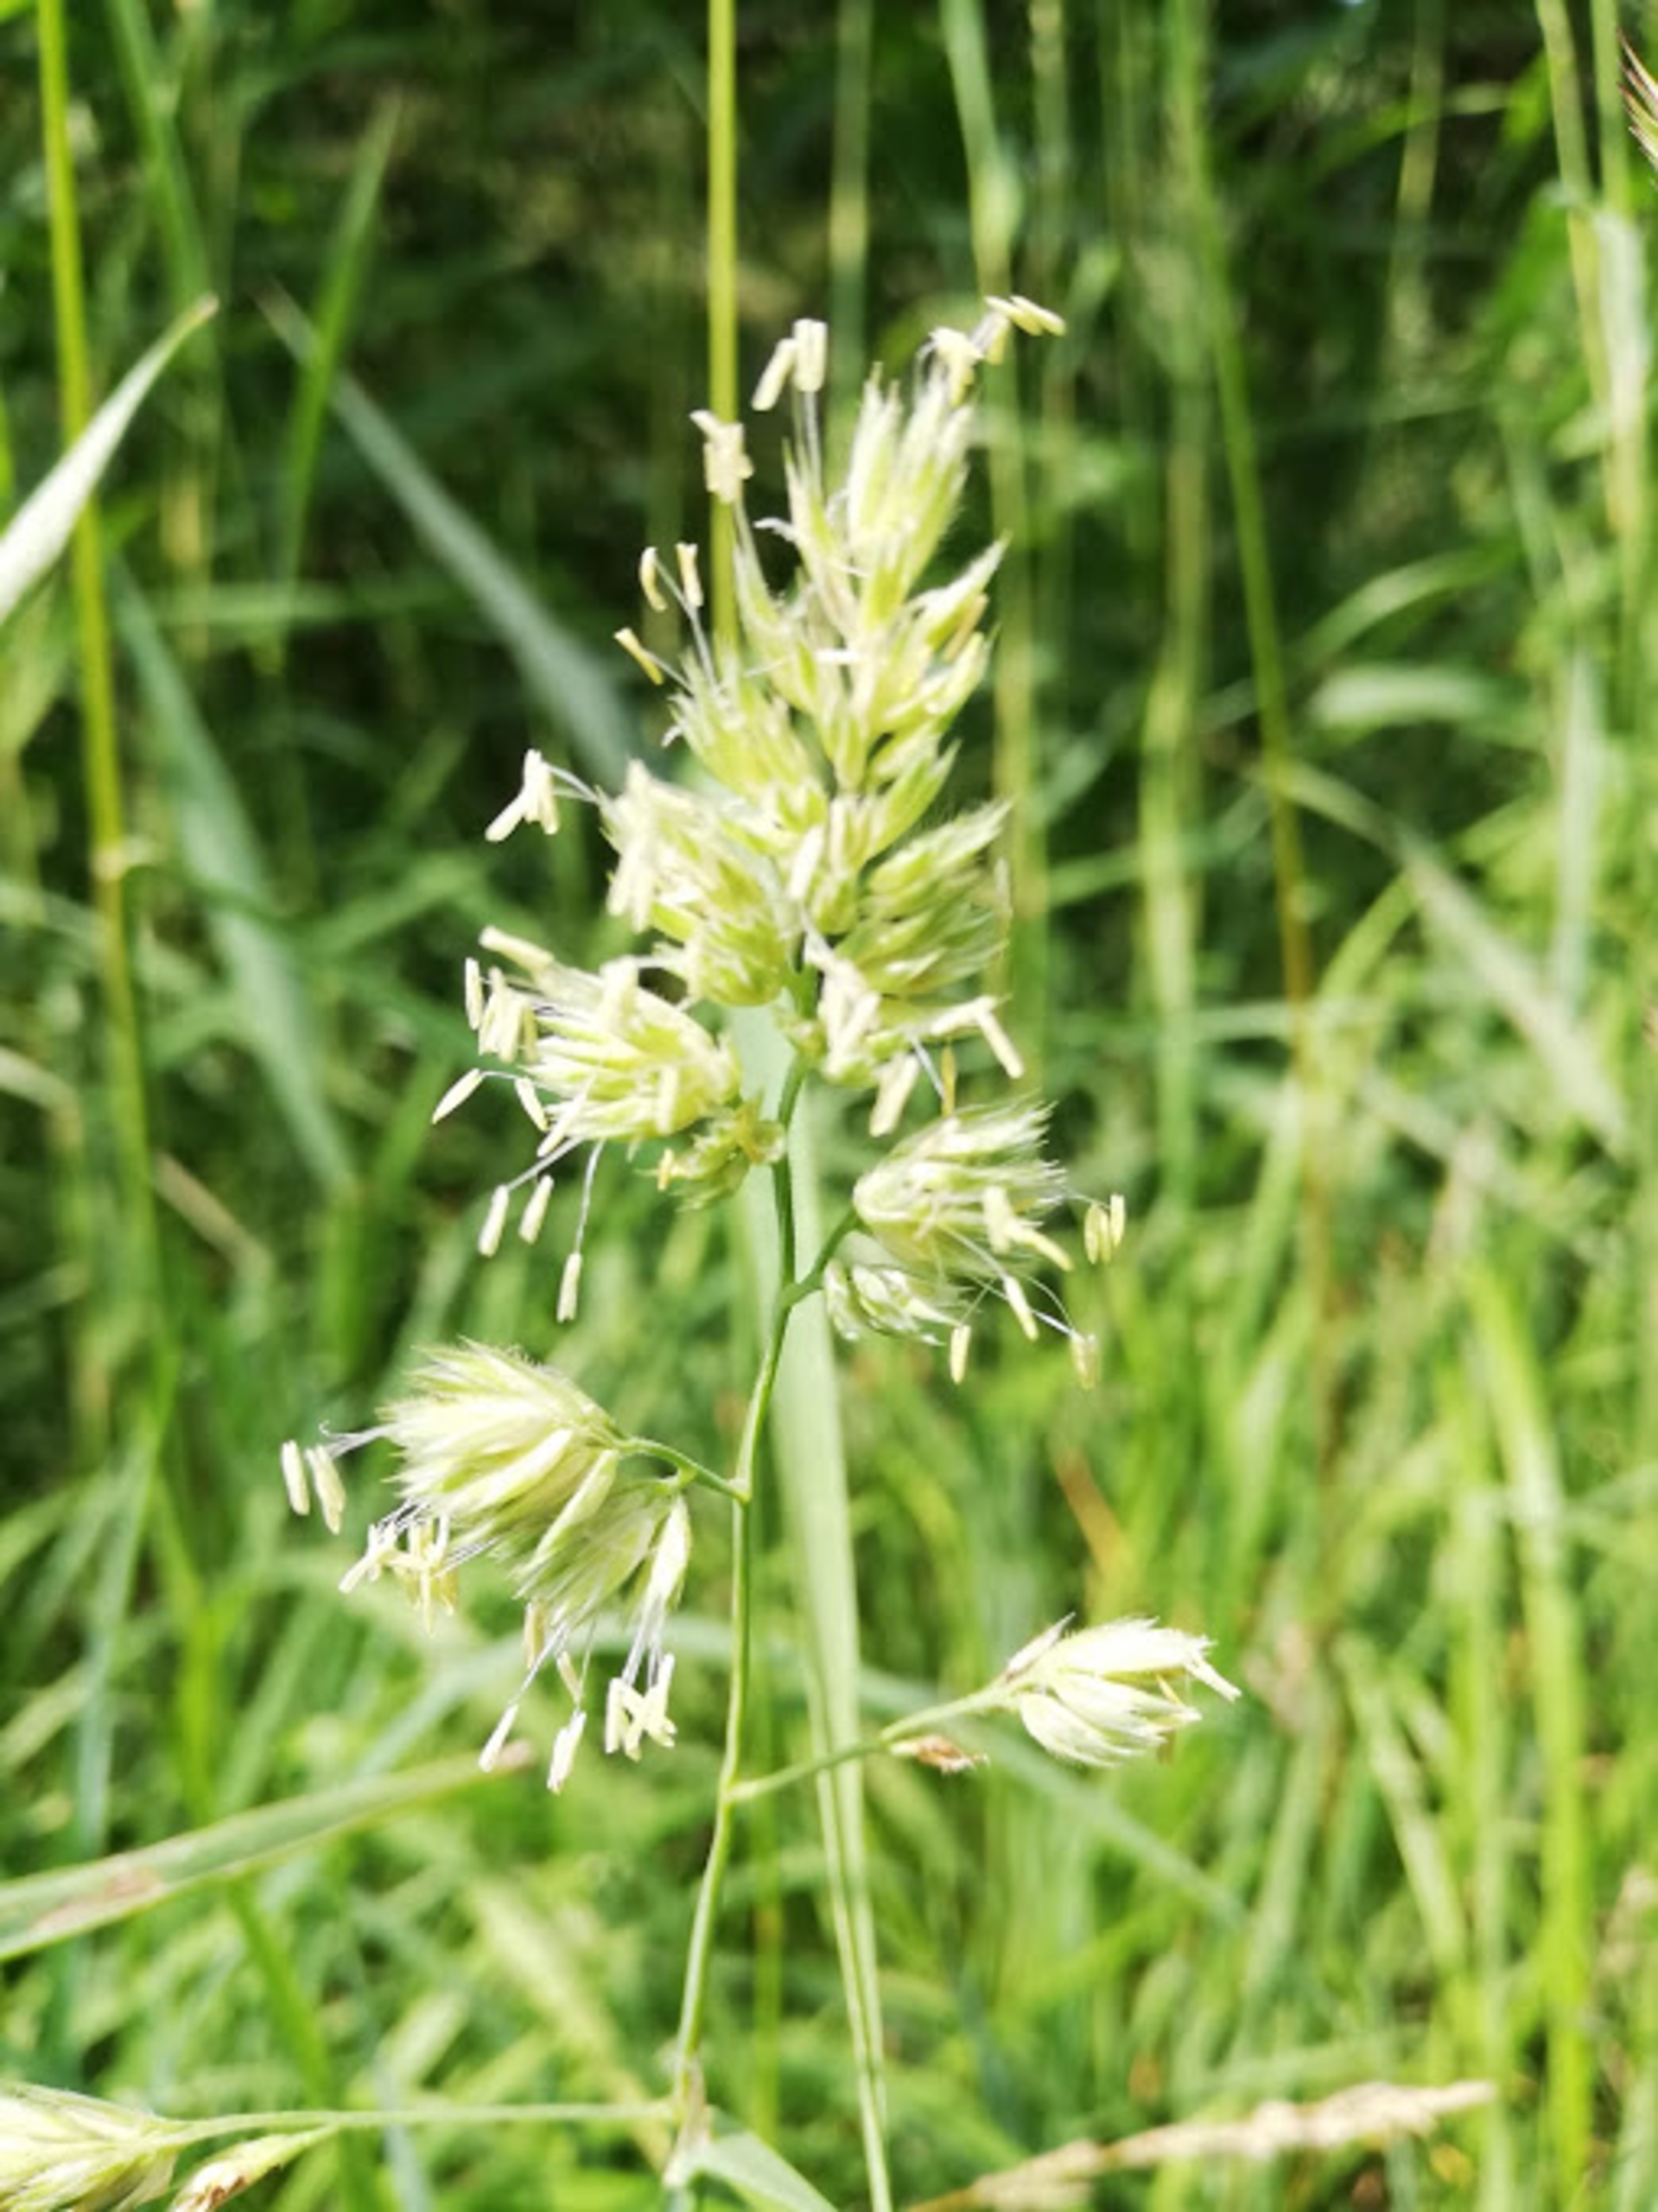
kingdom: Plantae
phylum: Tracheophyta
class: Liliopsida
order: Poales
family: Poaceae
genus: Dactylis
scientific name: Dactylis glomerata
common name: Almindelig hundegræs
